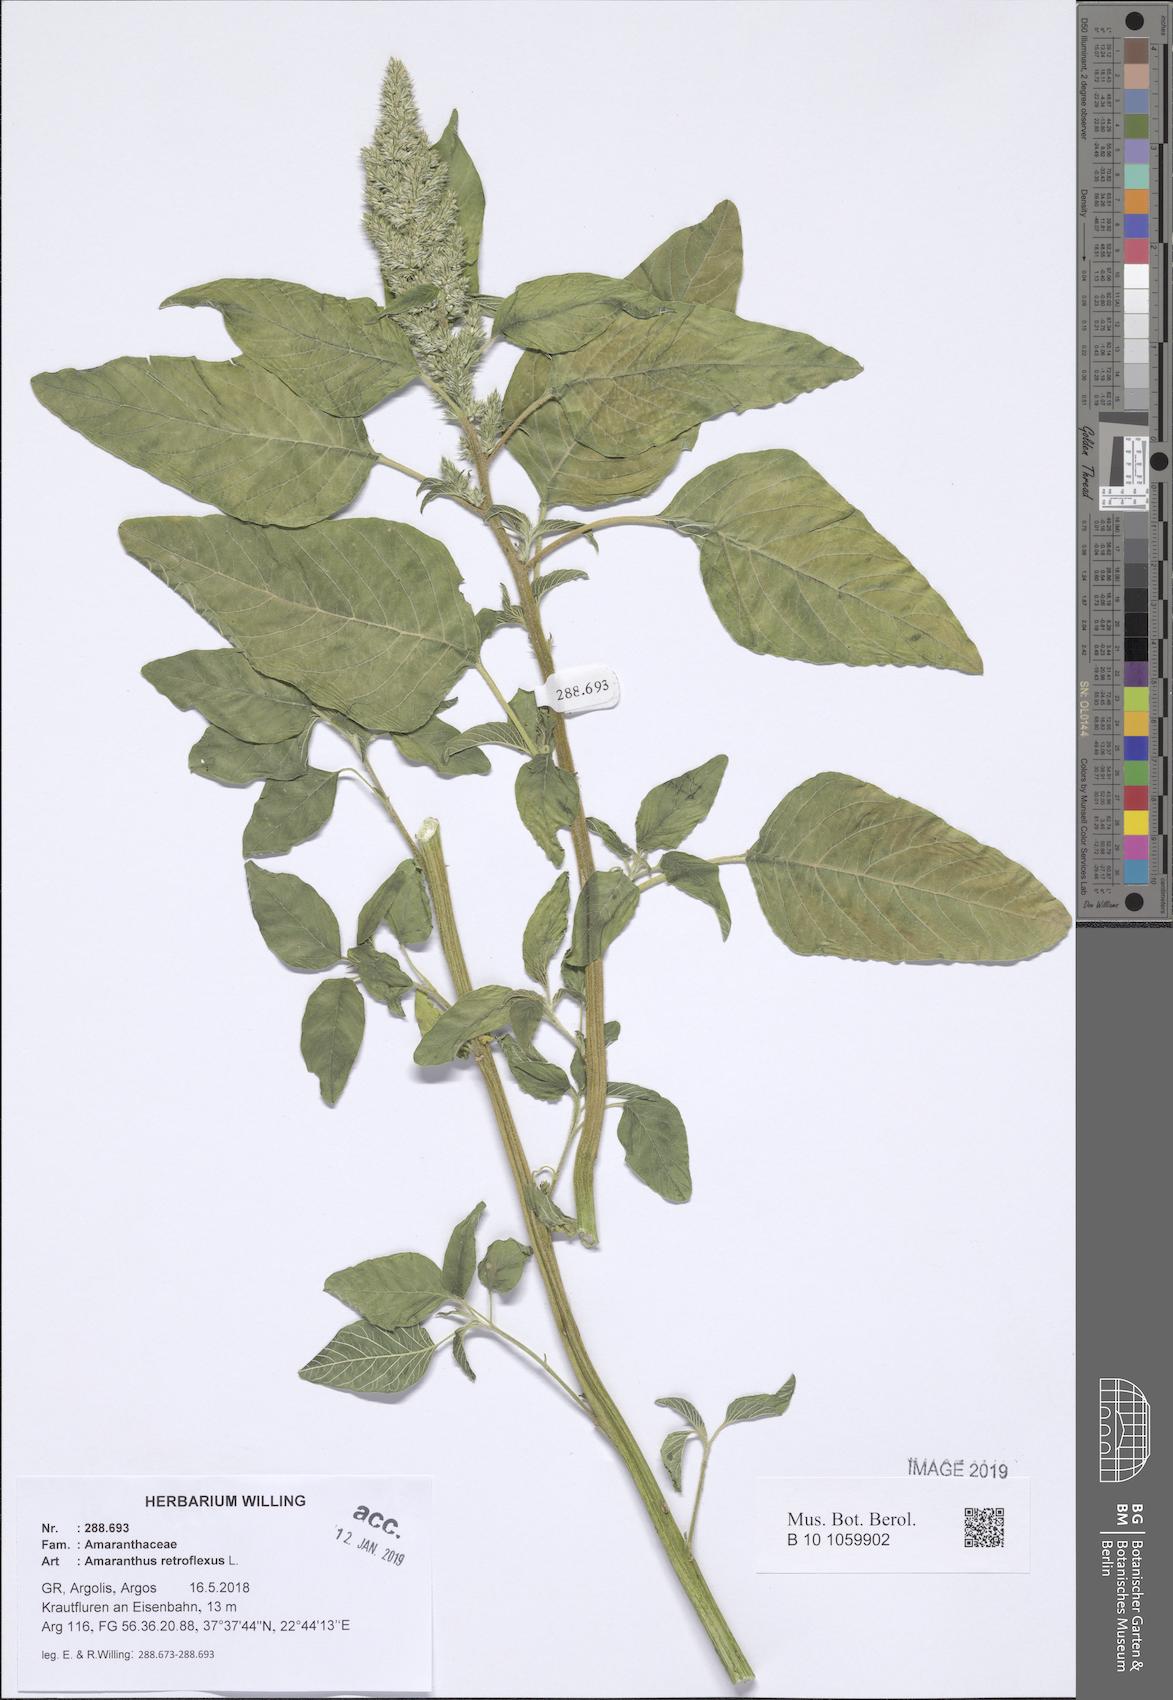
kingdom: Plantae
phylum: Tracheophyta
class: Magnoliopsida
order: Caryophyllales
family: Amaranthaceae
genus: Amaranthus
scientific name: Amaranthus retroflexus
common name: Redroot amaranth
